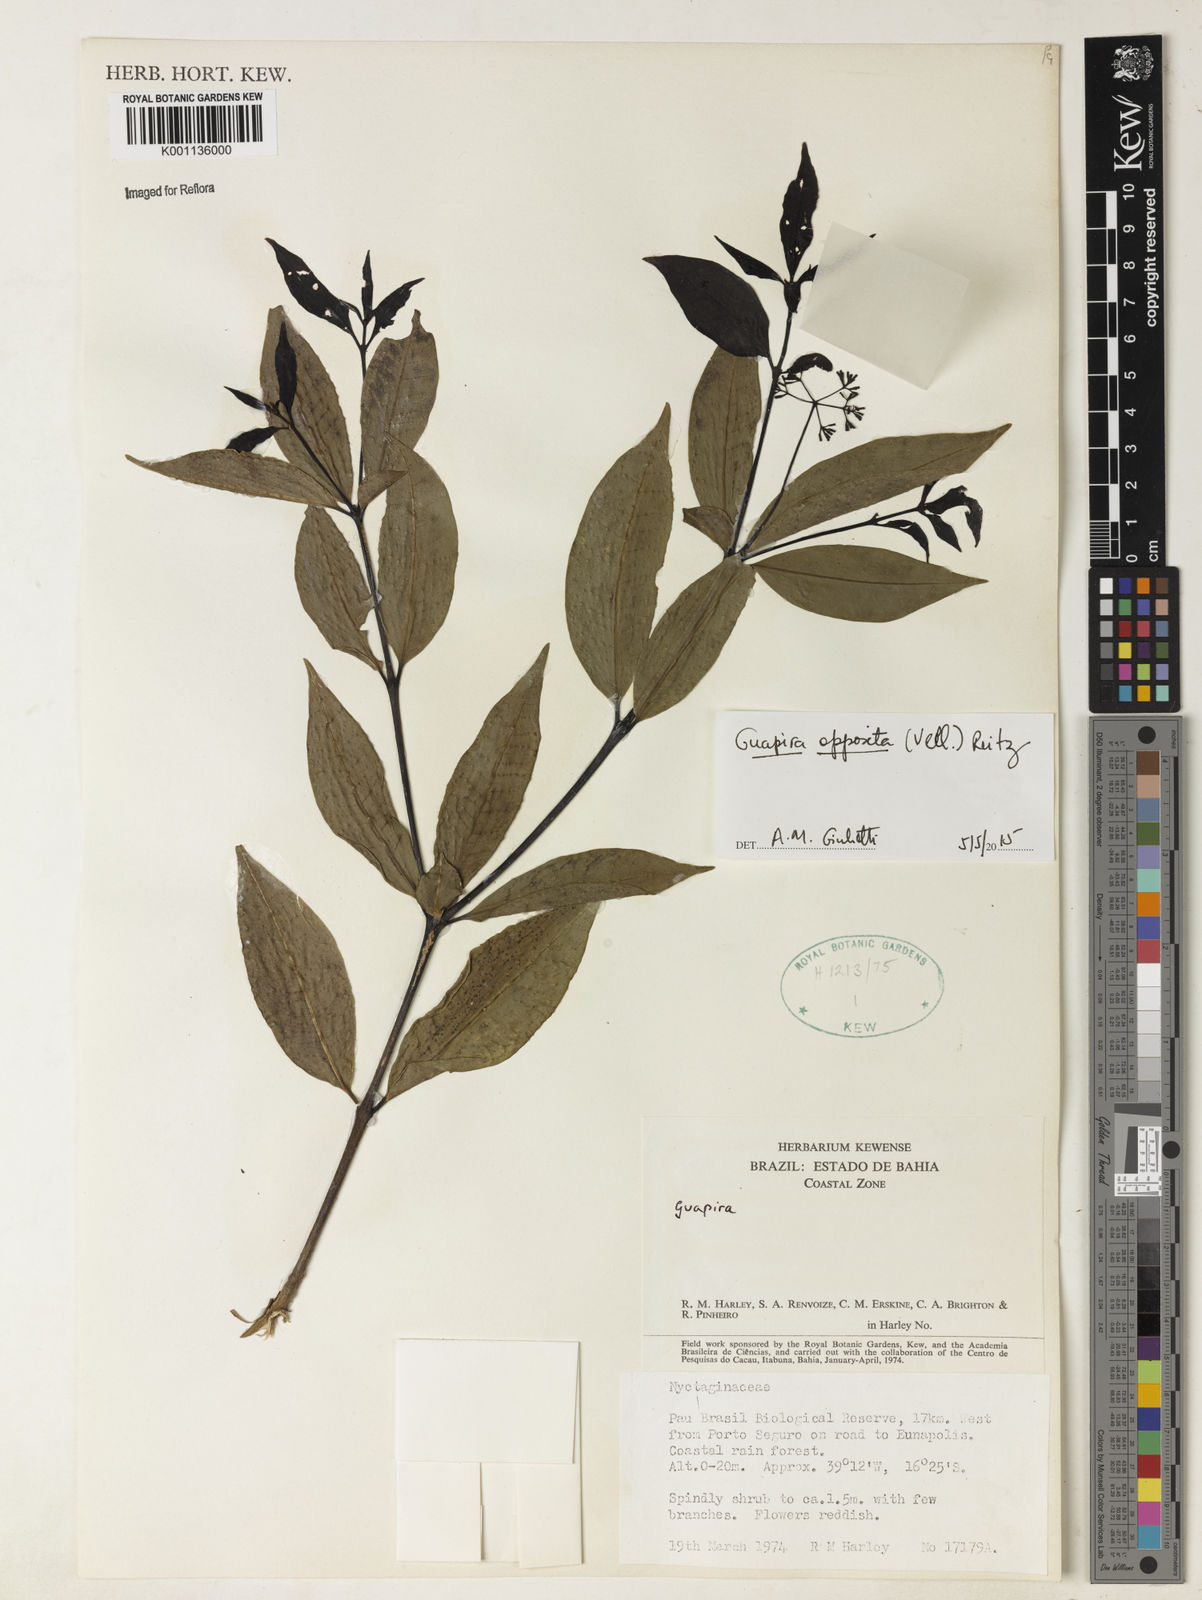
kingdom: Plantae
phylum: Tracheophyta
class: Magnoliopsida
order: Caryophyllales
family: Nyctaginaceae
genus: Guapira
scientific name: Guapira opposita
